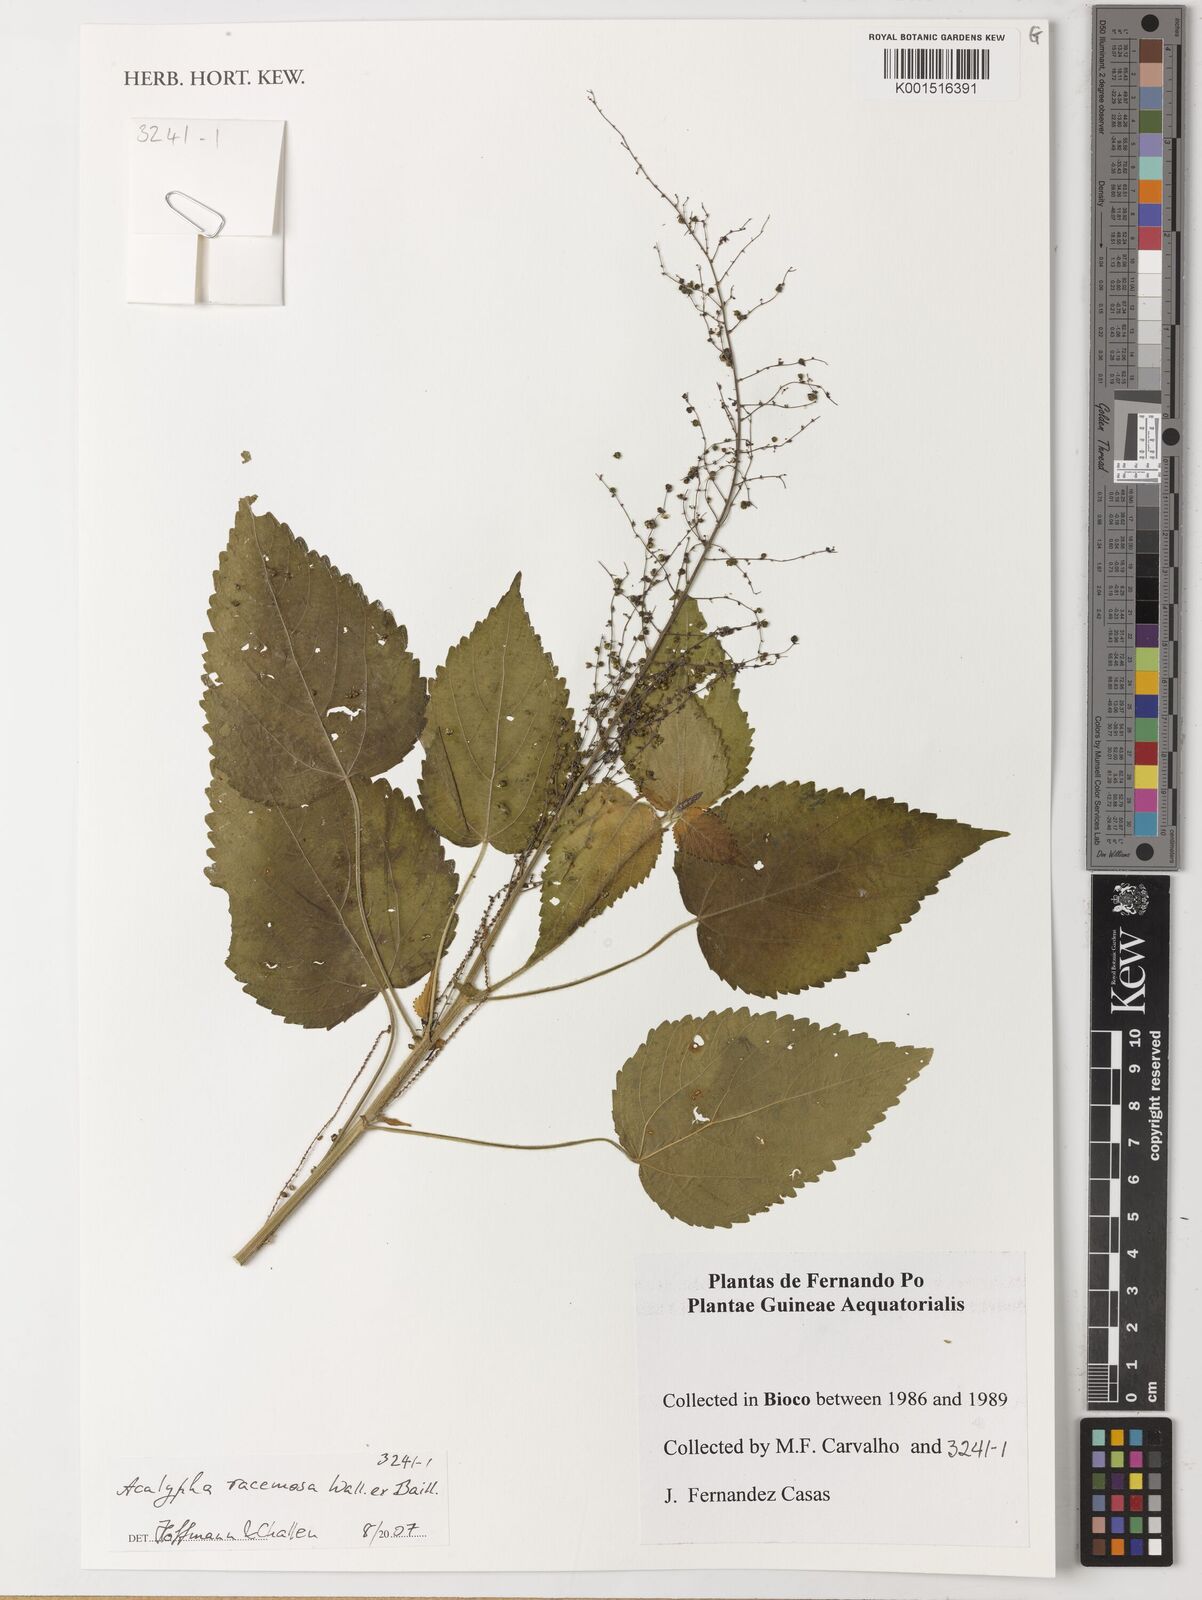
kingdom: Plantae
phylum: Tracheophyta
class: Magnoliopsida
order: Malpighiales
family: Euphorbiaceae
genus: Acalypha
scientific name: Acalypha paniculata
